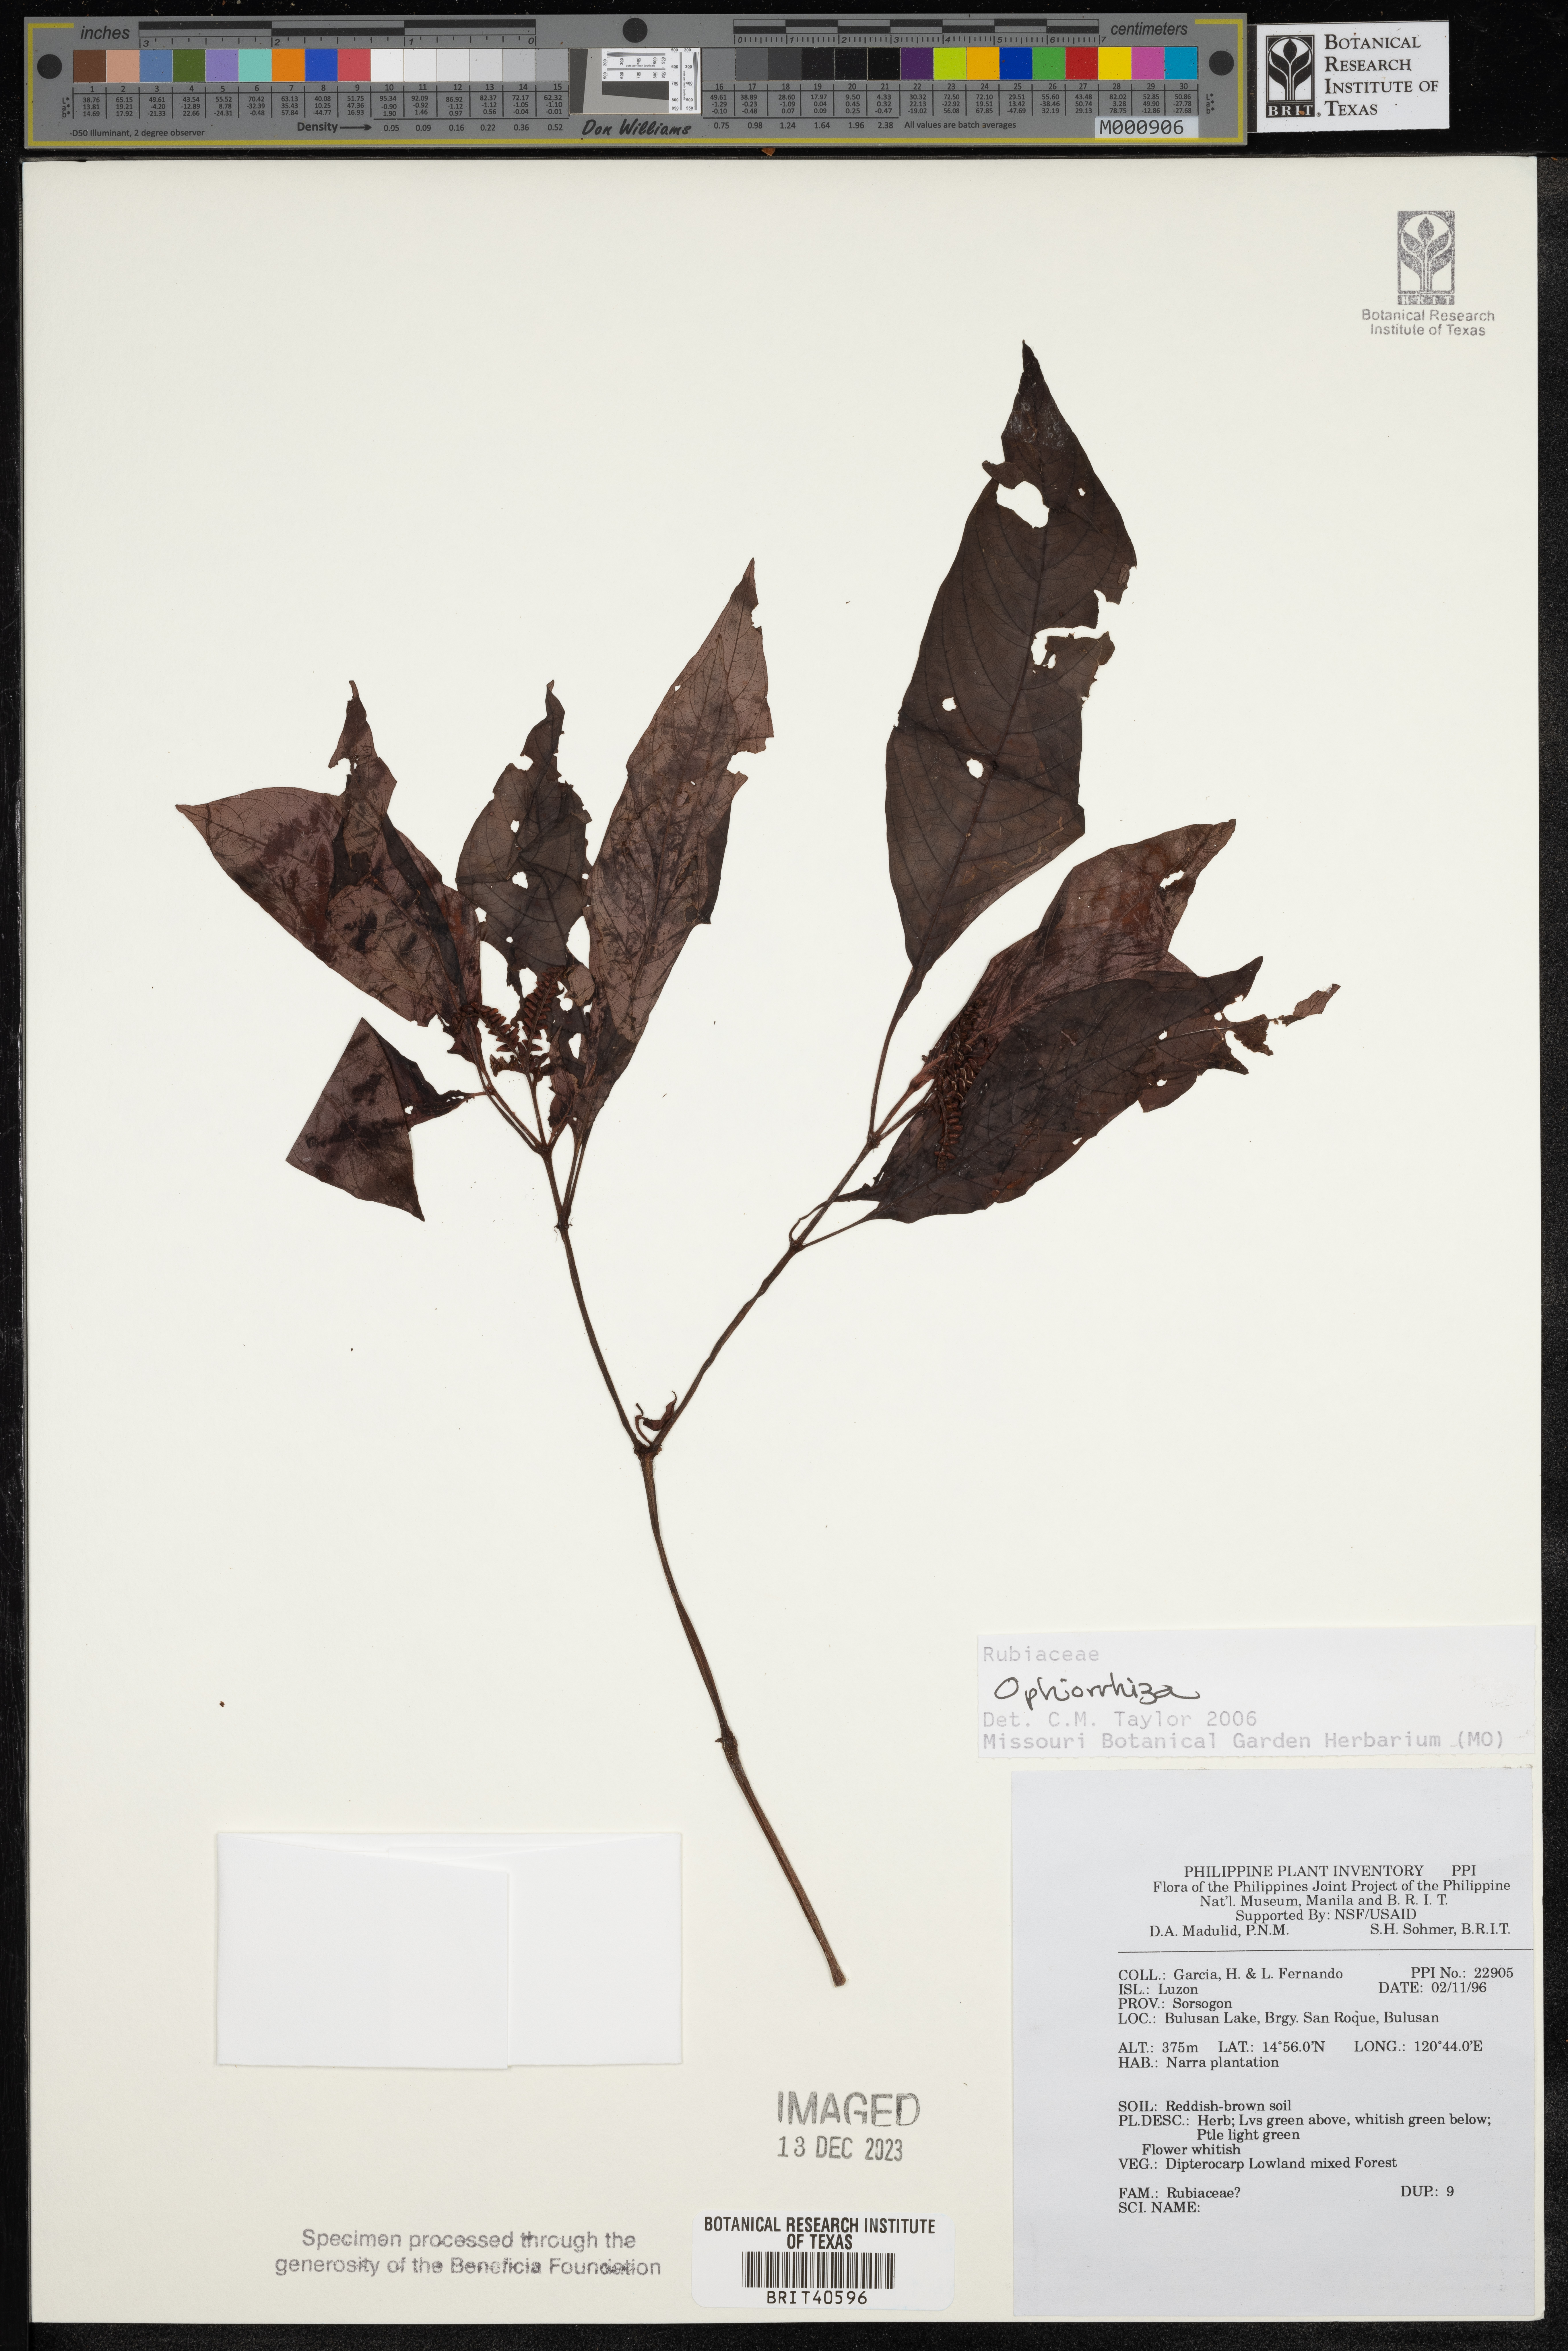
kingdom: Plantae
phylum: Tracheophyta
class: Magnoliopsida
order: Gentianales
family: Rubiaceae
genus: Ophiorrhiza
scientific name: Ophiorrhiza
